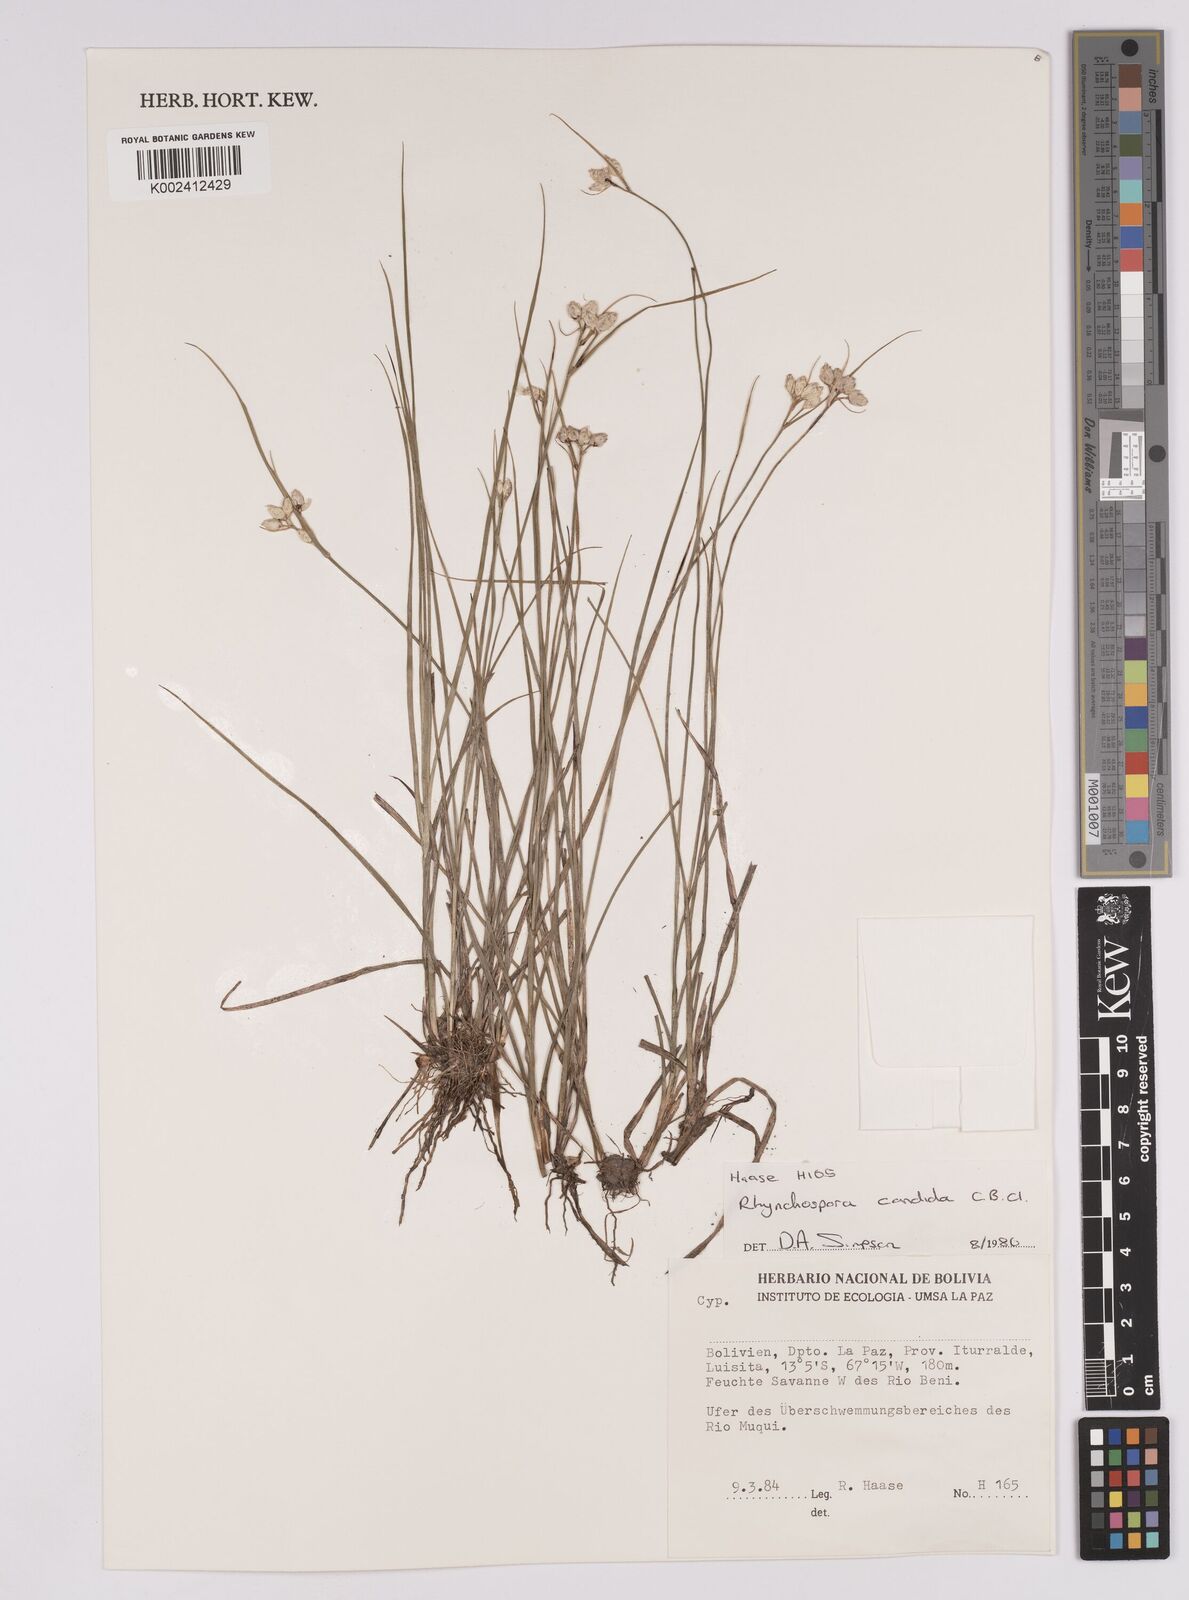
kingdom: Plantae
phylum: Tracheophyta
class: Liliopsida
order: Poales
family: Cyperaceae
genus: Rhynchospora
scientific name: Rhynchospora candida
